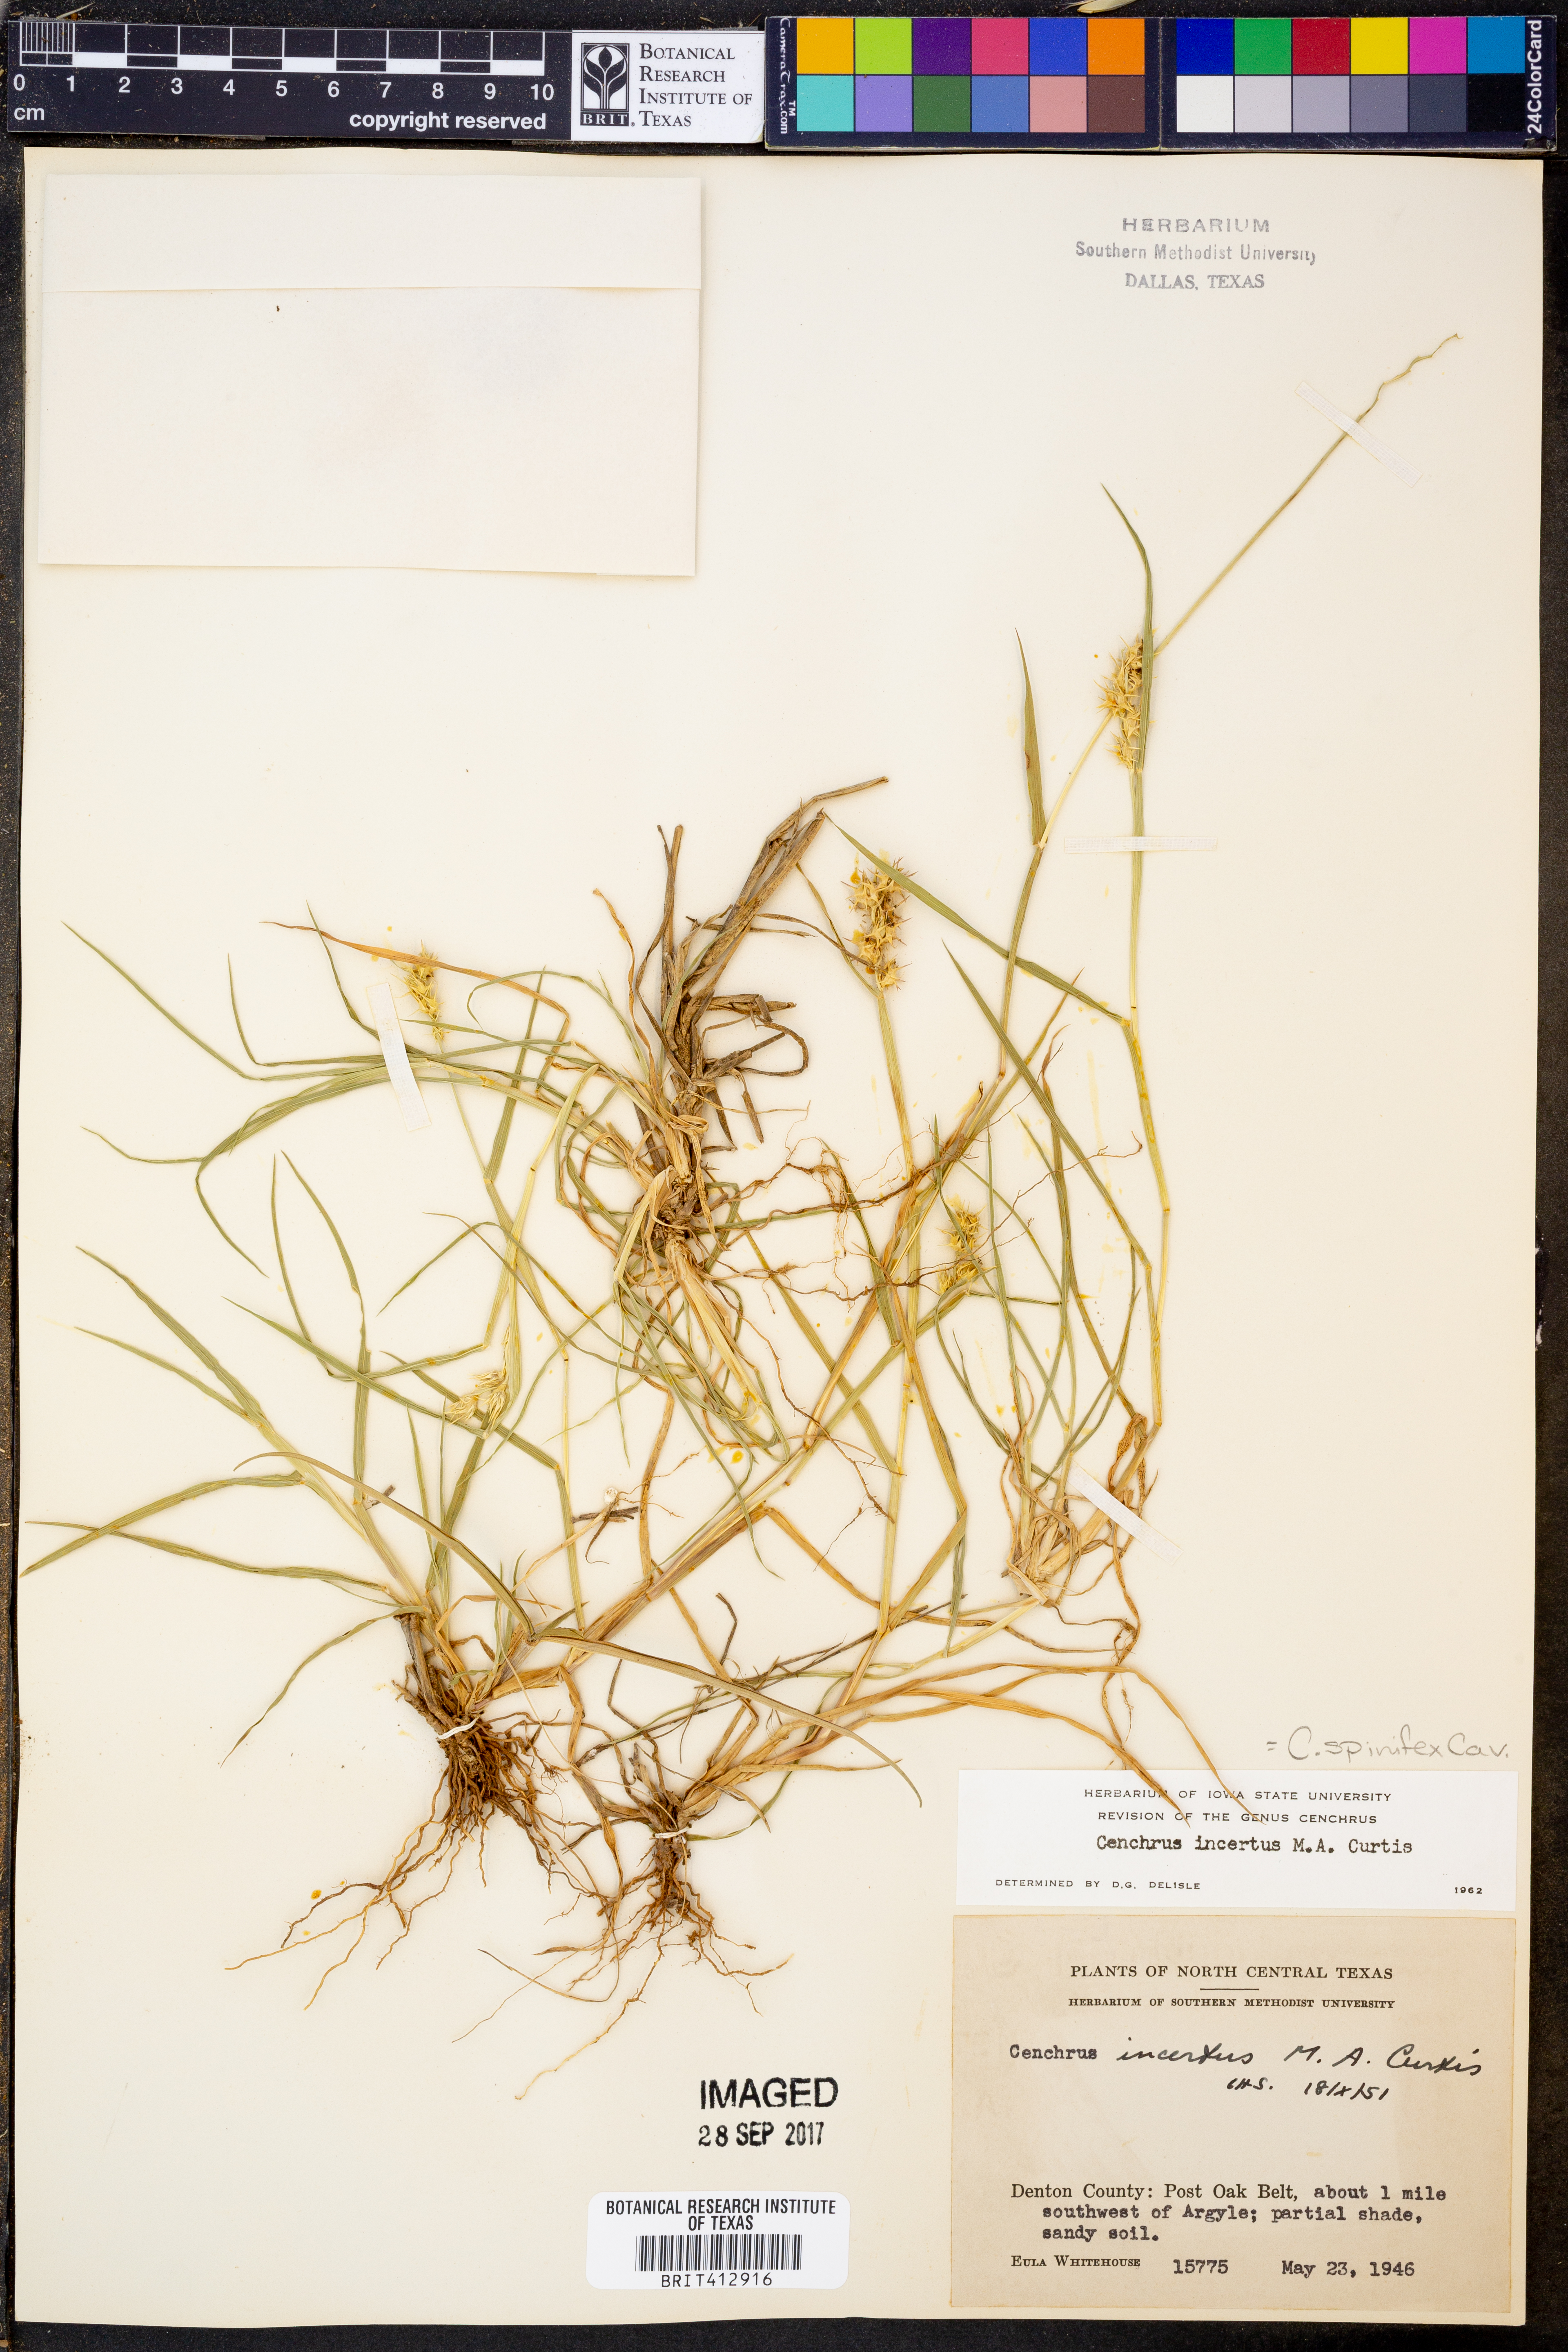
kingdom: Plantae
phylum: Tracheophyta
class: Liliopsida
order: Poales
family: Poaceae
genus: Cenchrus
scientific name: Cenchrus spinifex
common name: Coast sandbur
